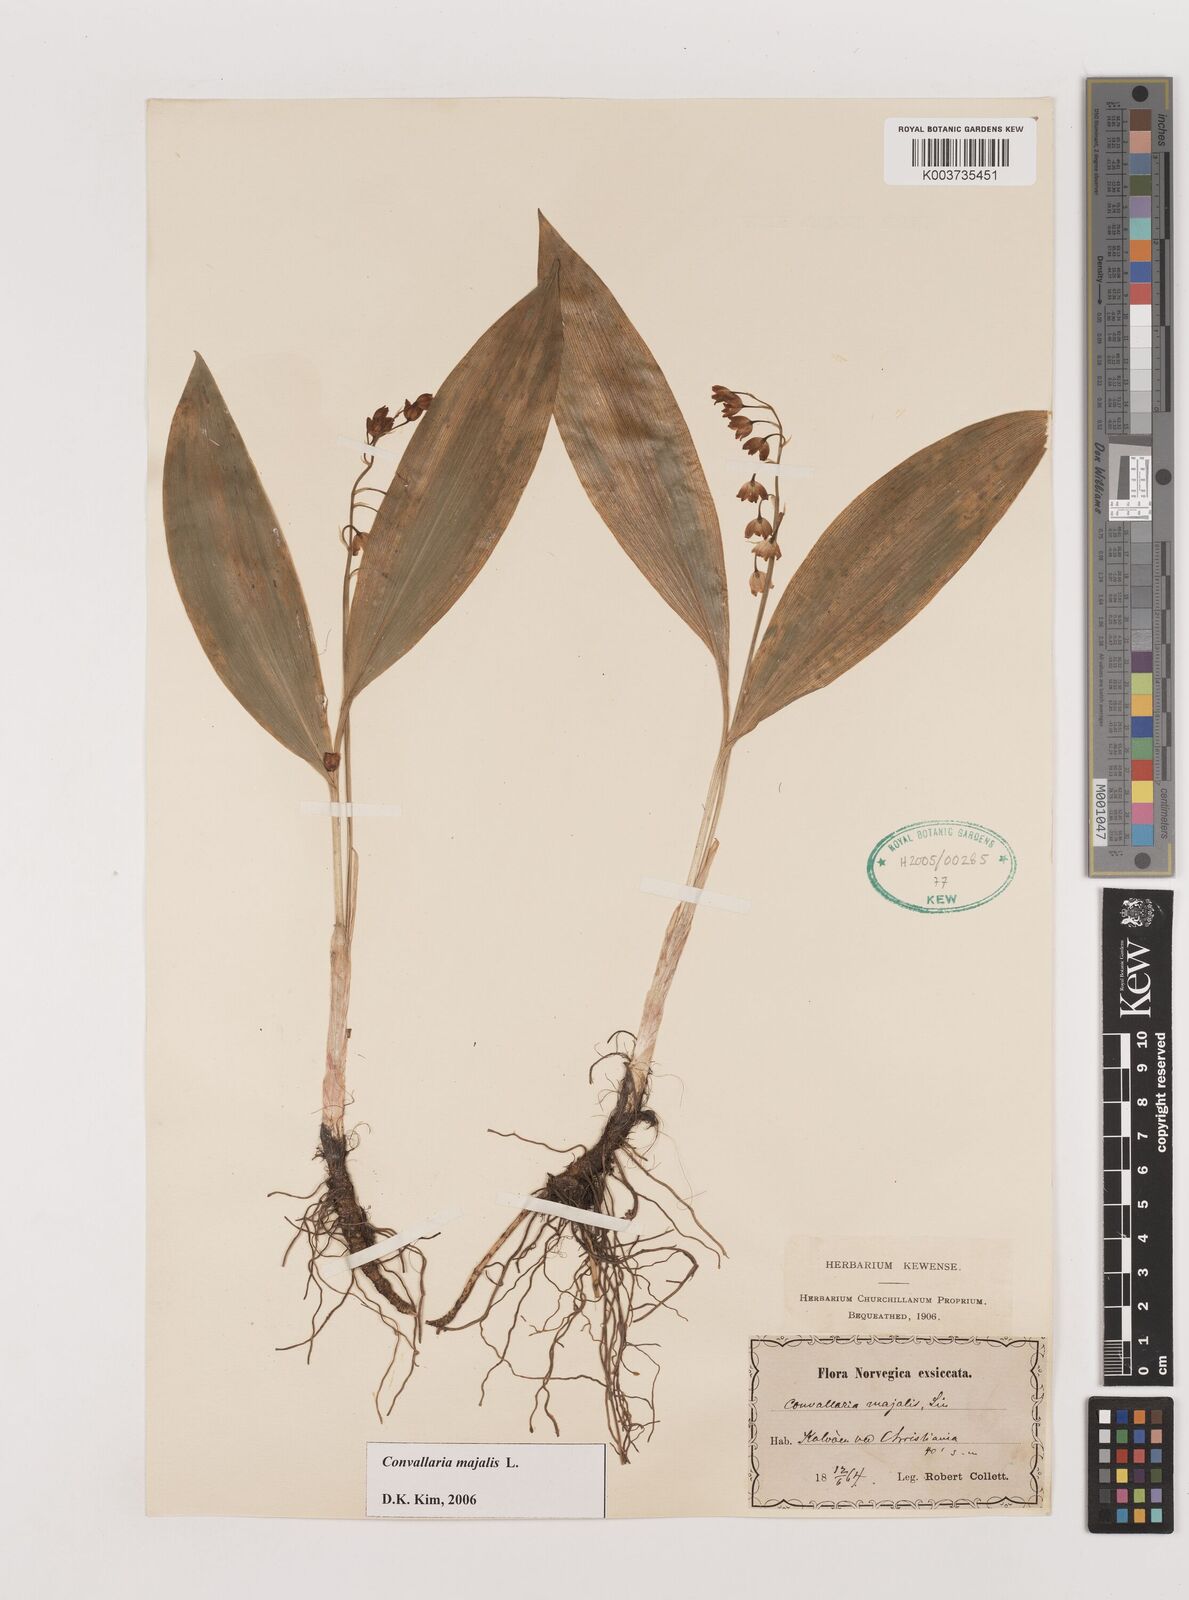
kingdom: Plantae
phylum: Tracheophyta
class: Liliopsida
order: Asparagales
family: Asparagaceae
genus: Convallaria
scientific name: Convallaria majalis
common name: Lily-of-the-valley
